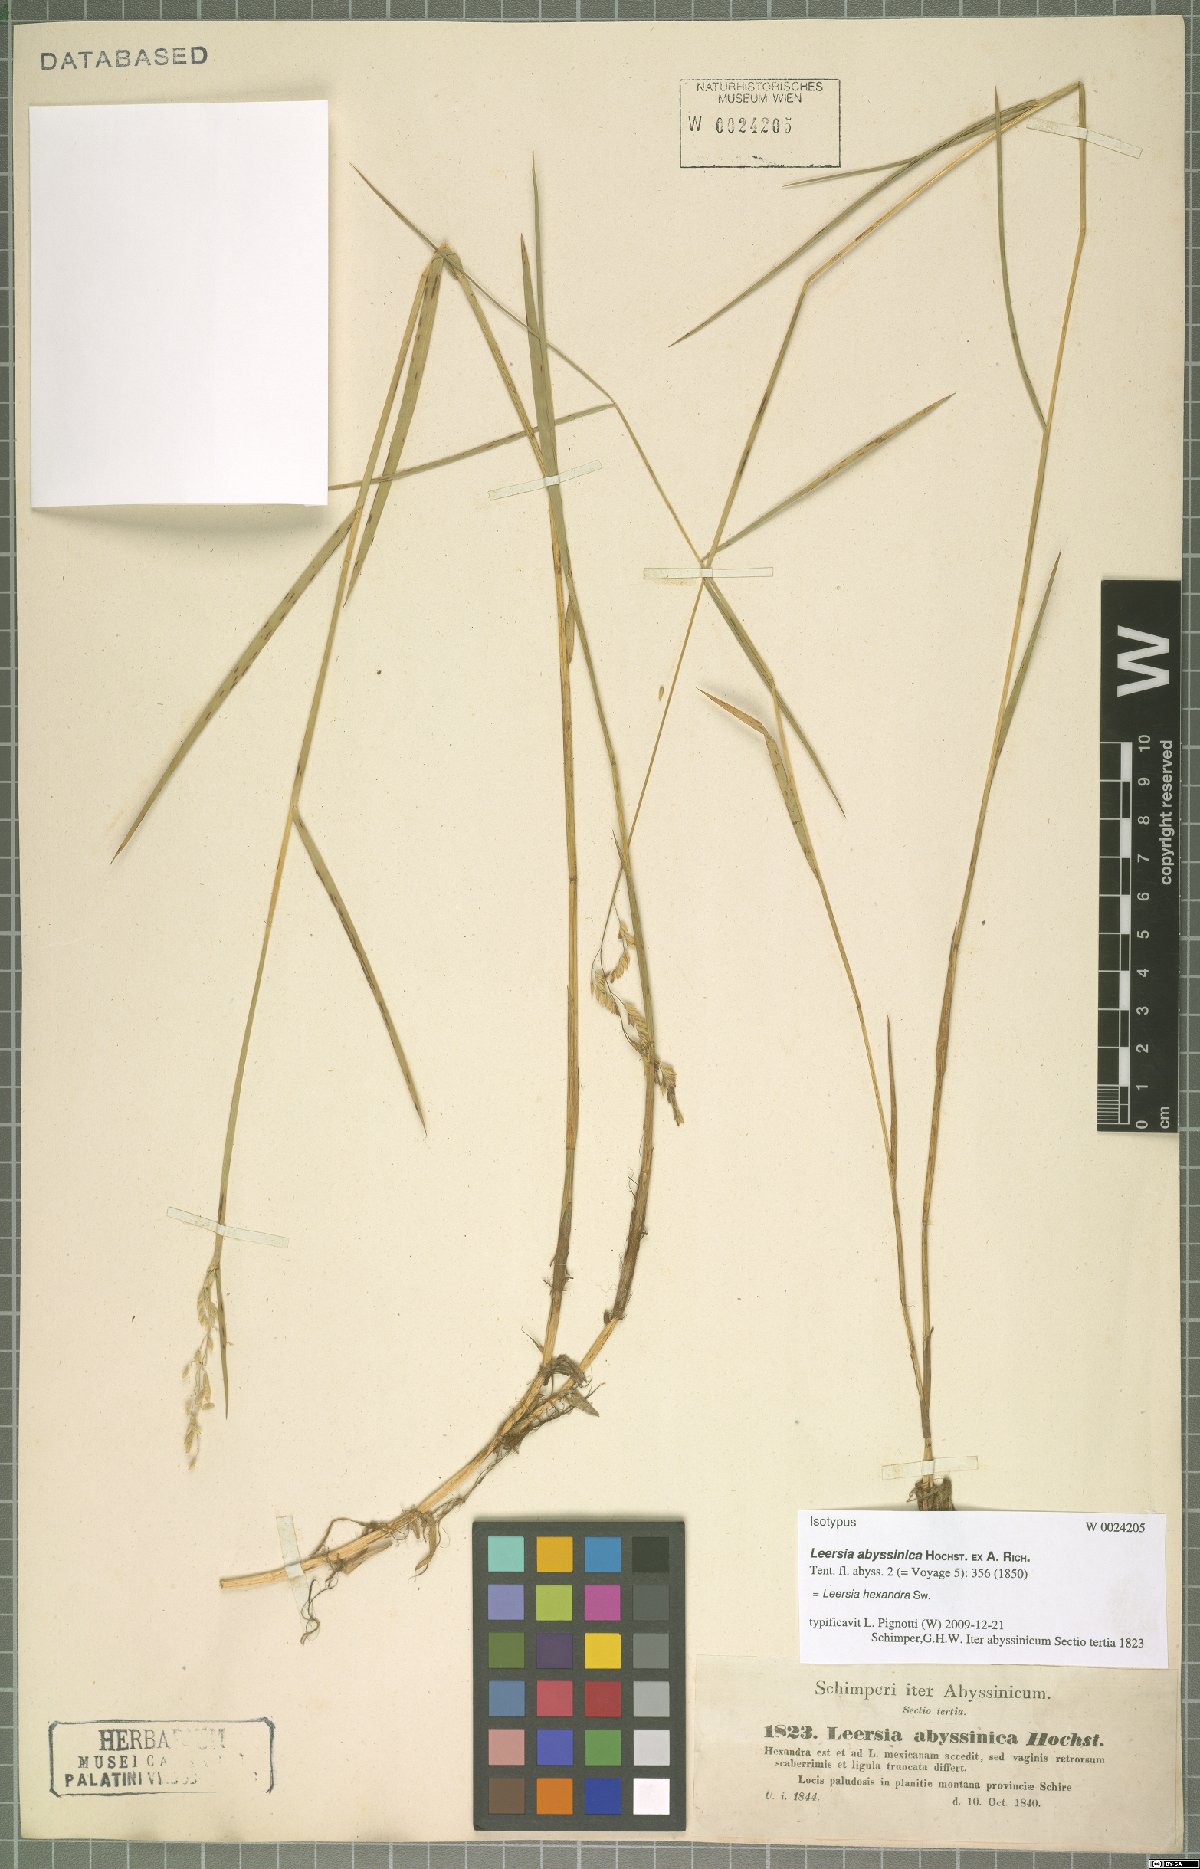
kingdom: Plantae
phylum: Tracheophyta
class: Liliopsida
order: Poales
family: Poaceae
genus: Leersia
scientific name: Leersia hexandra
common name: Southern cut grass
